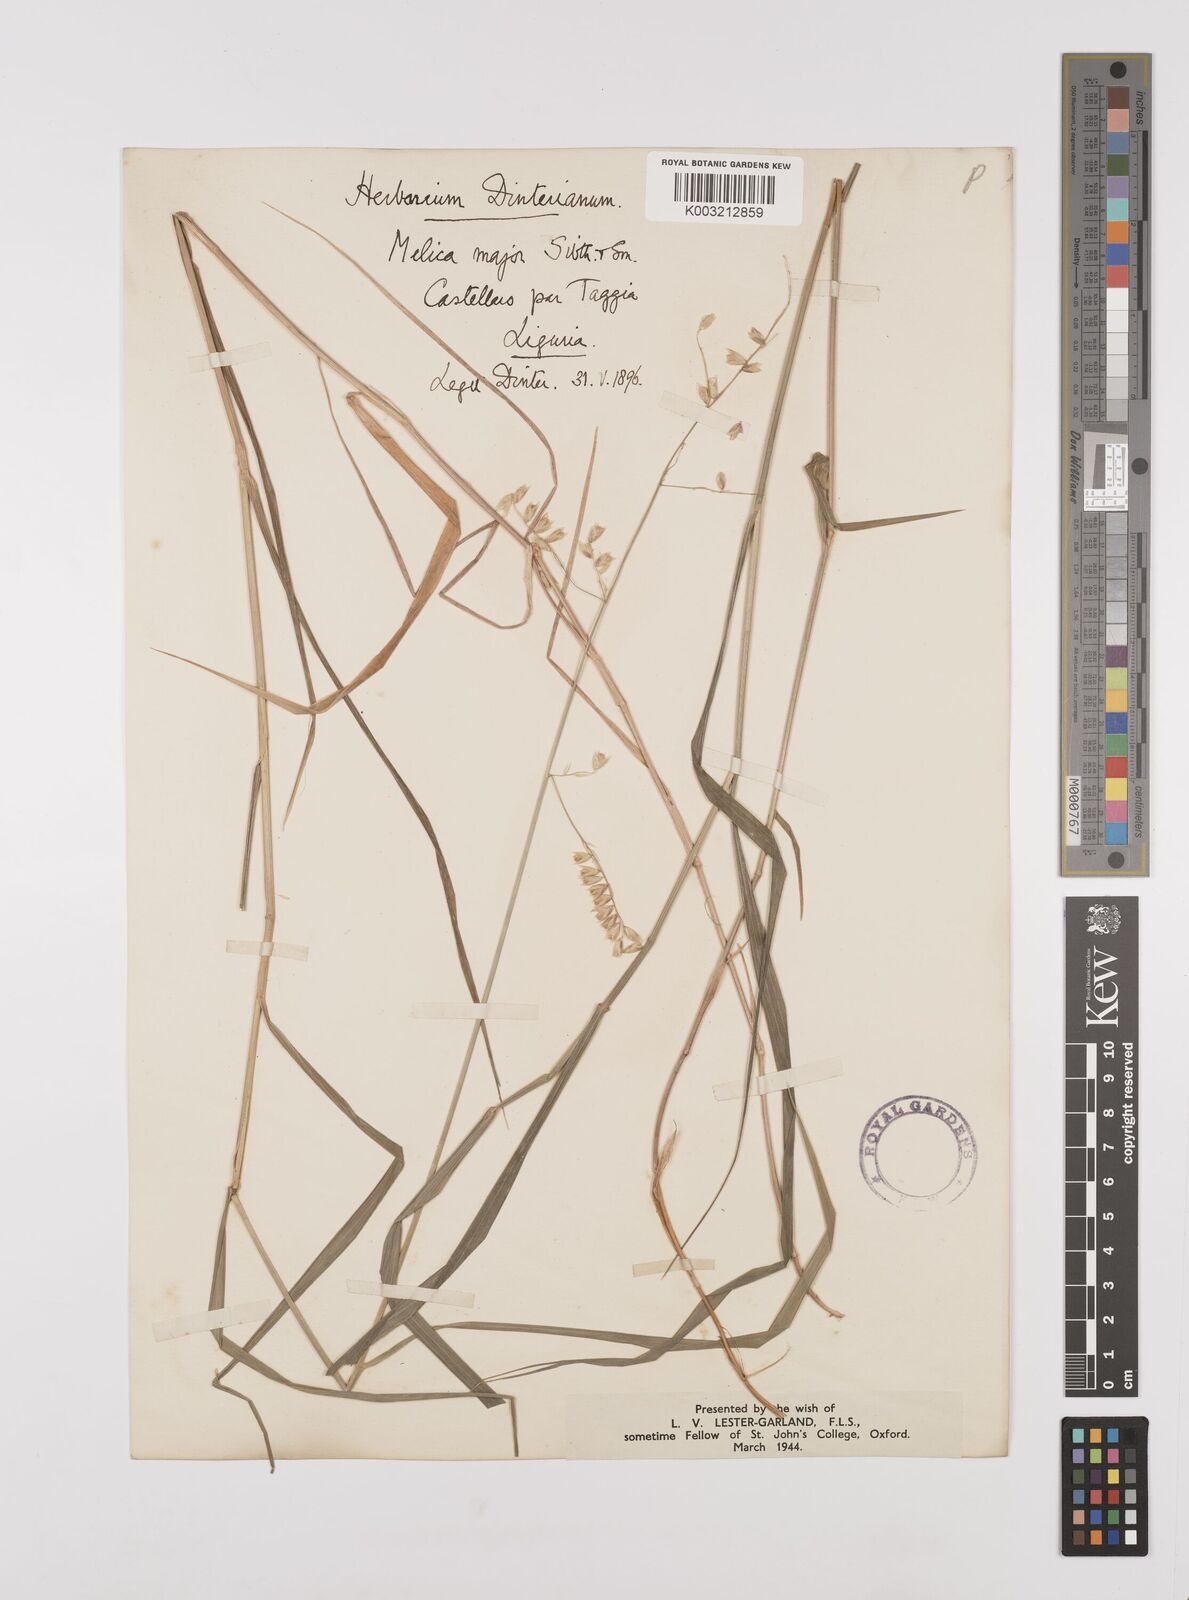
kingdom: Plantae
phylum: Tracheophyta
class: Liliopsida
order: Poales
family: Poaceae
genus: Melica
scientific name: Melica minuta
